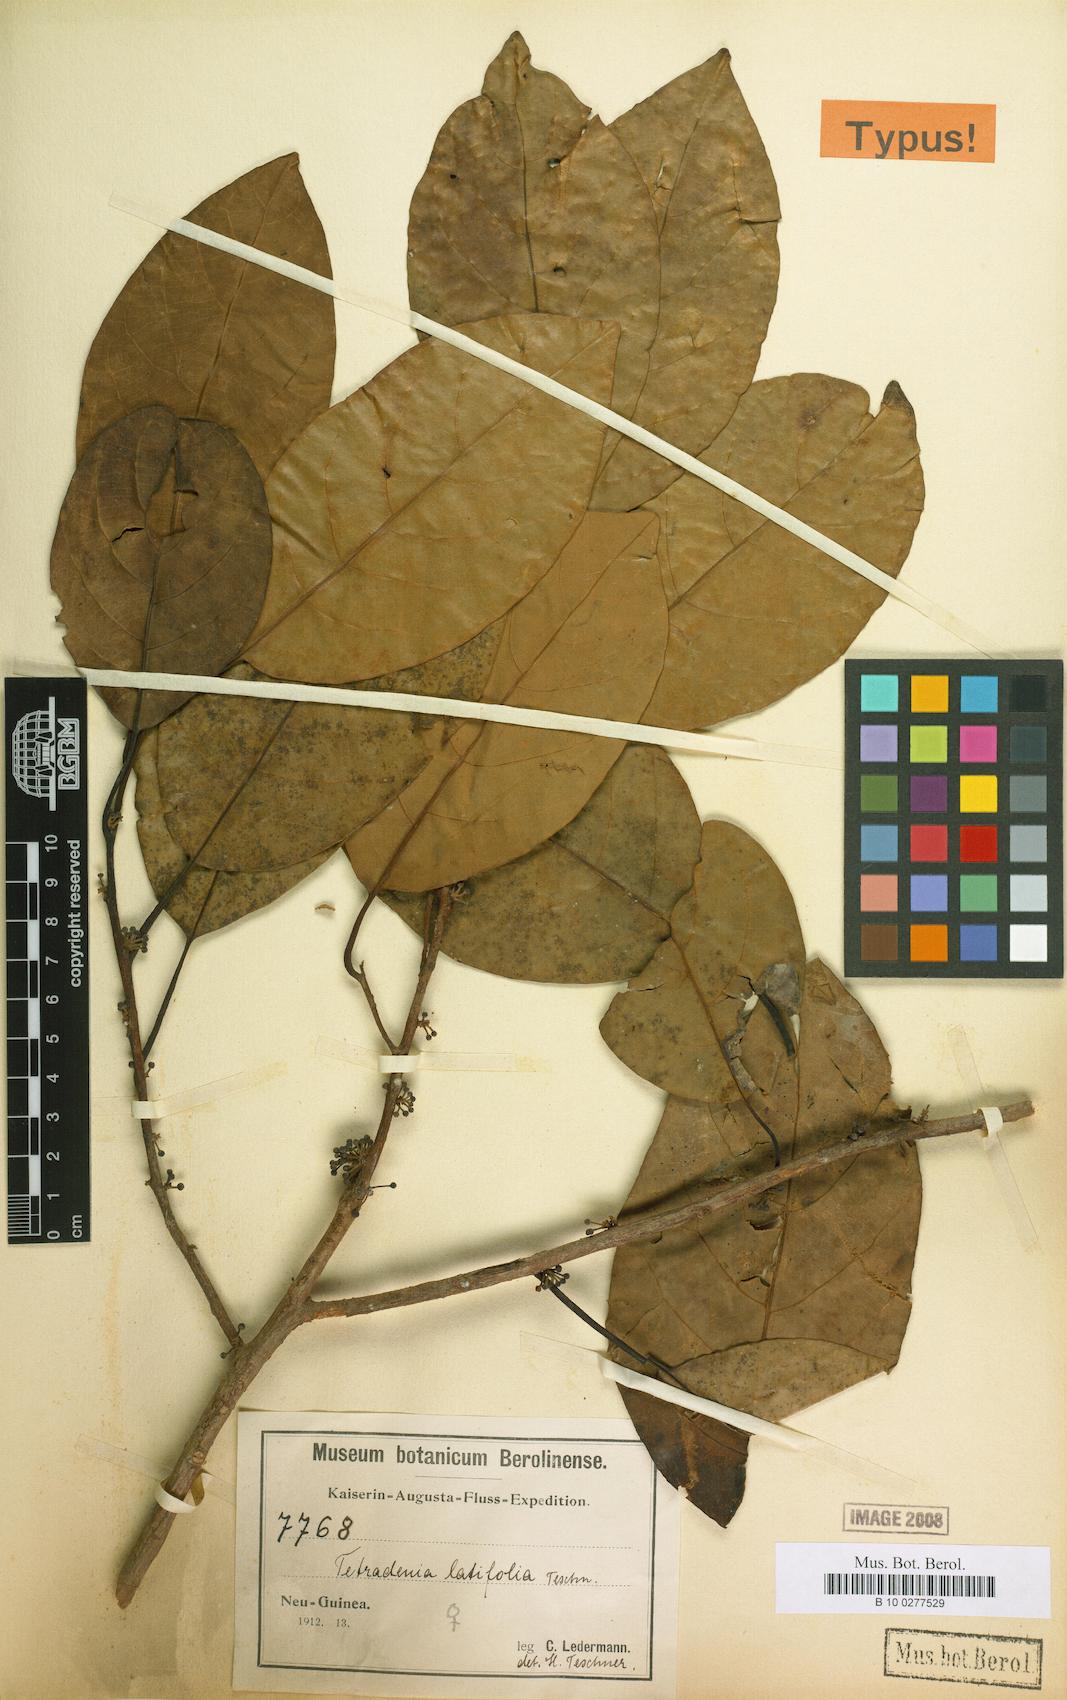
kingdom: Plantae
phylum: Tracheophyta
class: Magnoliopsida
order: Laurales
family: Lauraceae
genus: Neolitsea
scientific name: Neolitsea latifolia
